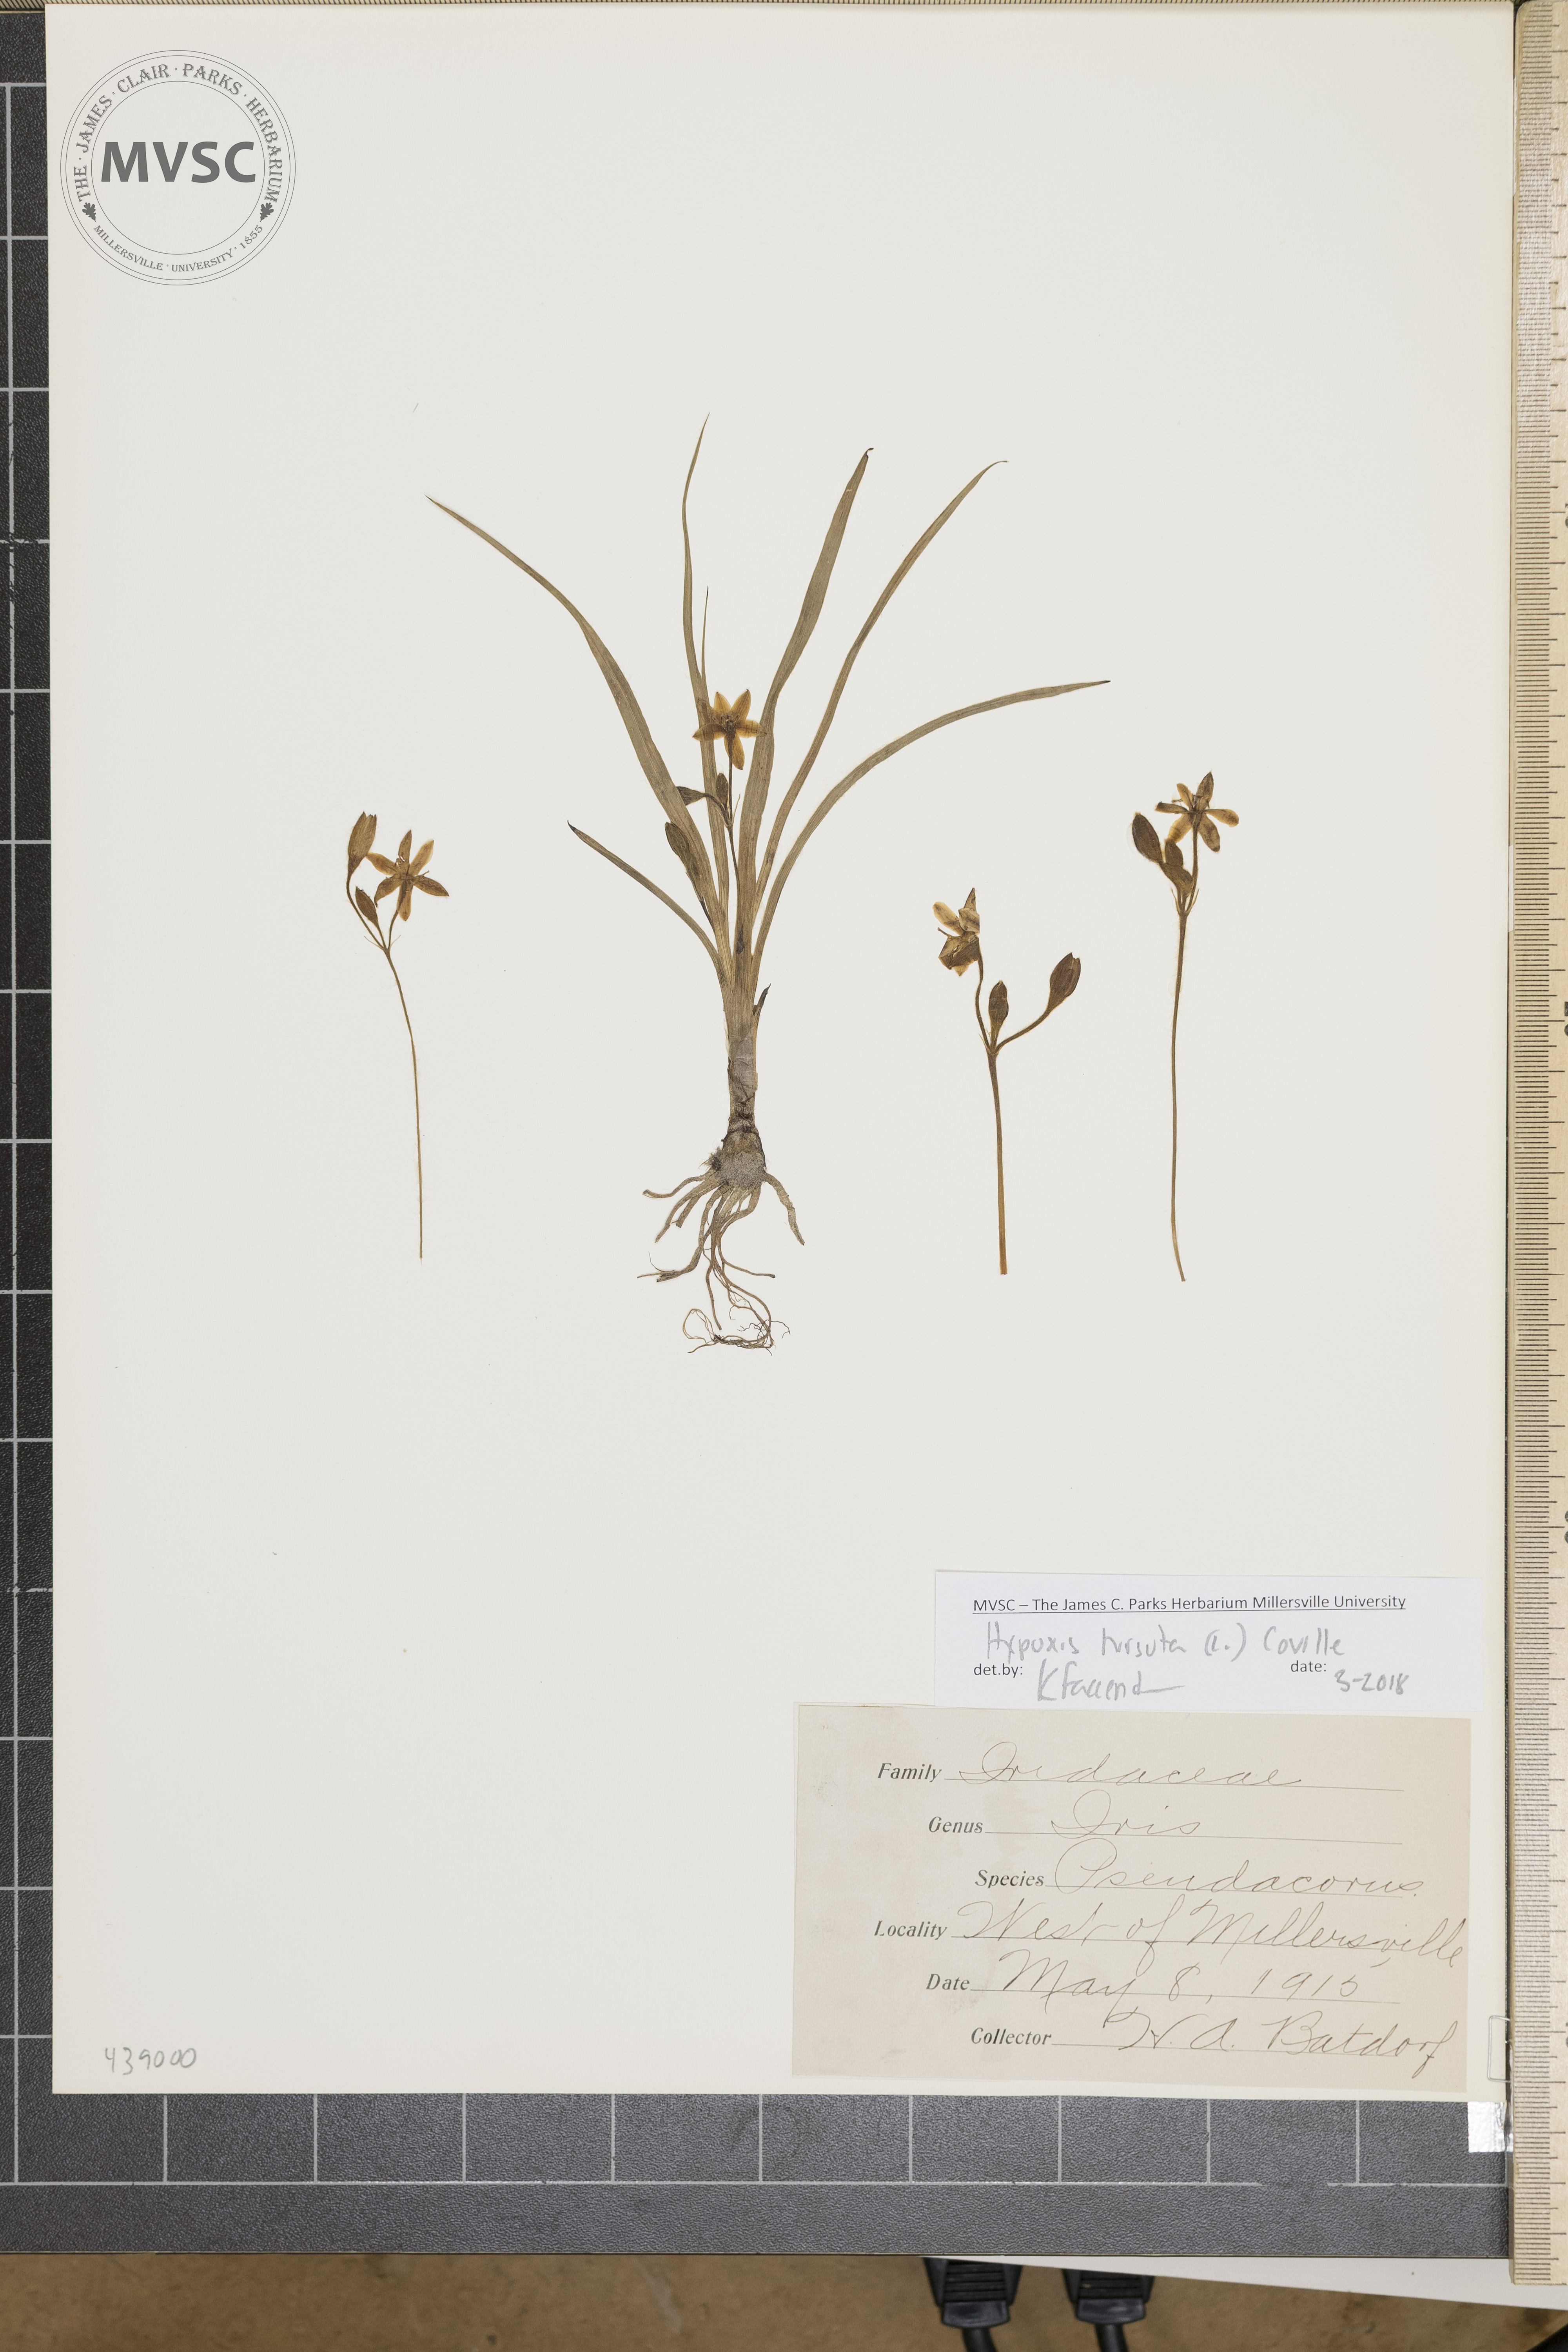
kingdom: Plantae
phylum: Tracheophyta
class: Liliopsida
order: Asparagales
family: Hypoxidaceae
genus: Hypoxis
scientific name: Hypoxis hirsuta
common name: Common goldstar
